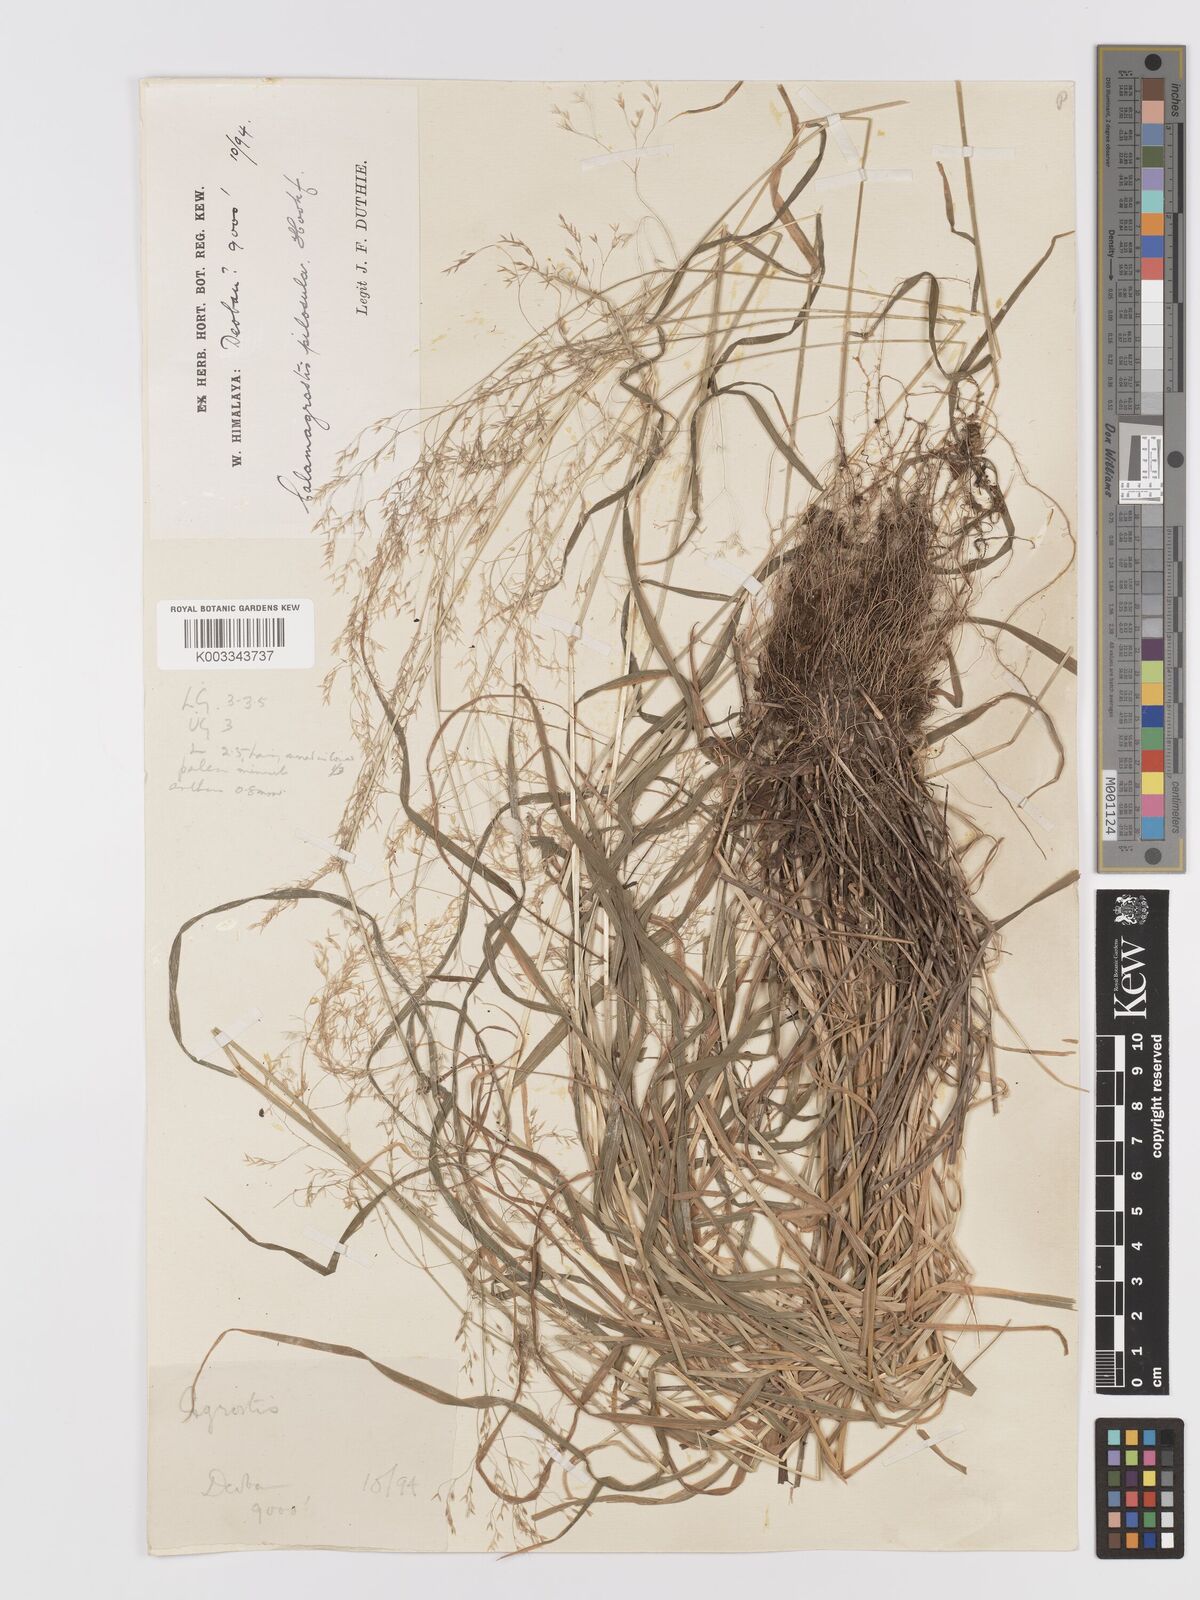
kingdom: Plantae
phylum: Tracheophyta
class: Liliopsida
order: Poales
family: Poaceae
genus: Agrostis
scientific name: Agrostis pilosula
